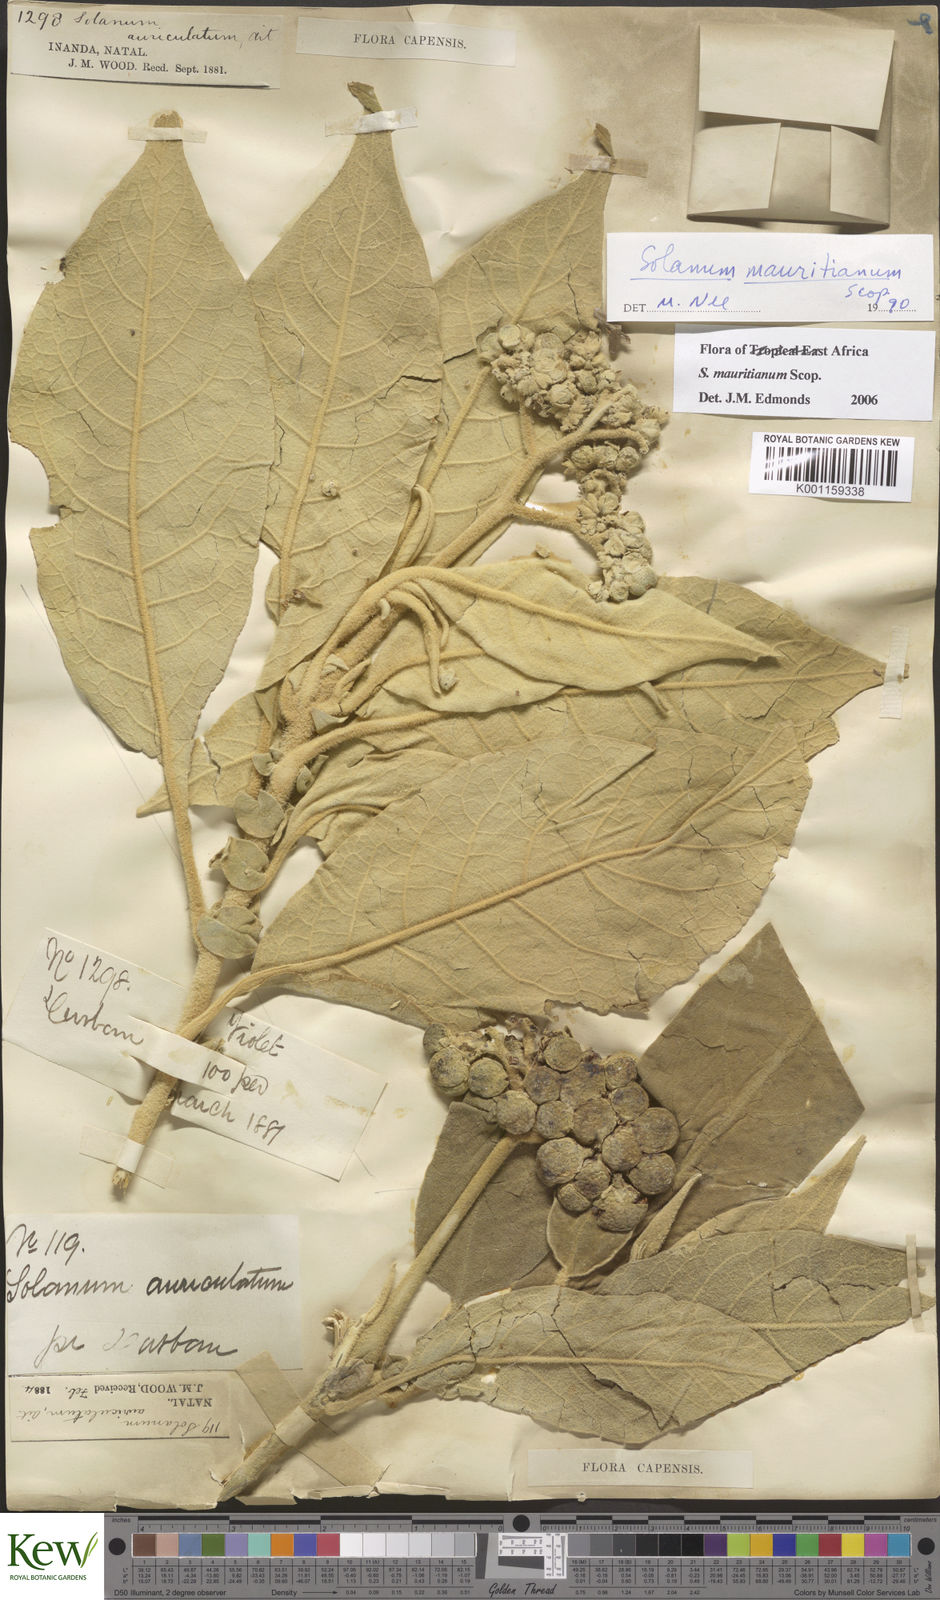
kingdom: Plantae
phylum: Tracheophyta
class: Magnoliopsida
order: Solanales
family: Solanaceae
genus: Solanum
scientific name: Solanum mauritianum
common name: Earleaf nightshade
